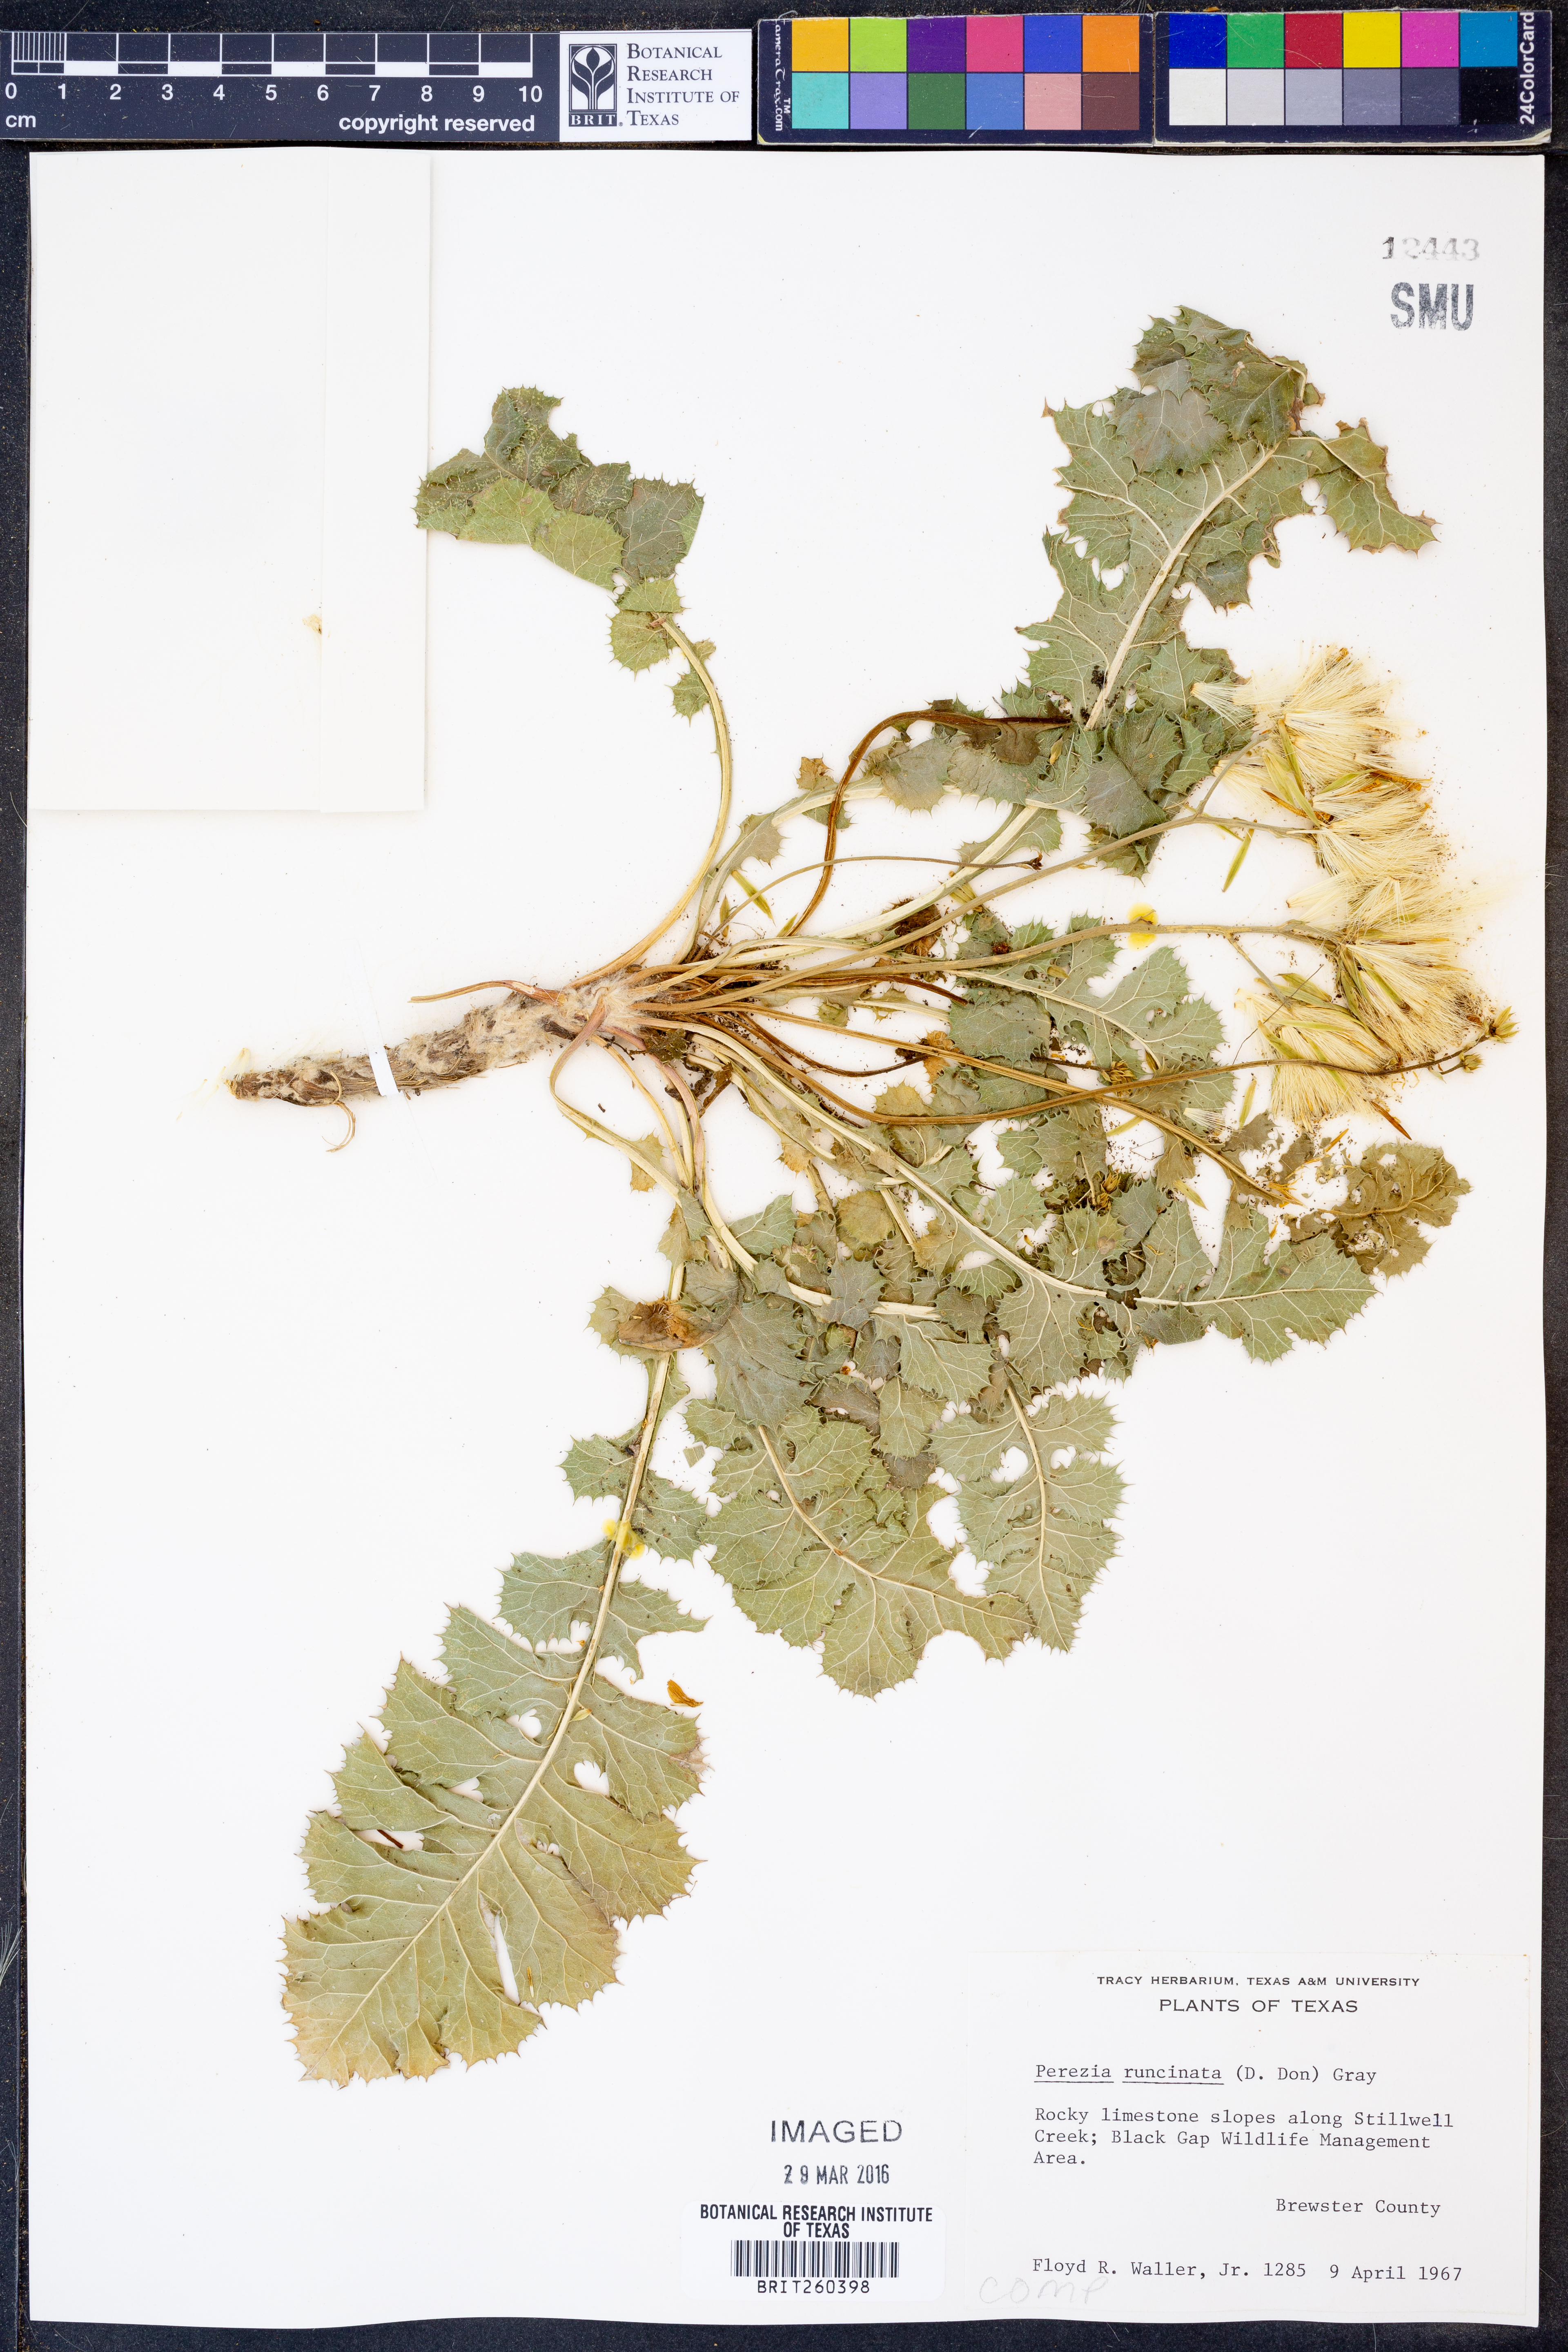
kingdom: Plantae
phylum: Tracheophyta
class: Magnoliopsida
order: Asterales
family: Asteraceae
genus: Acourtia
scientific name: Acourtia runcinata
